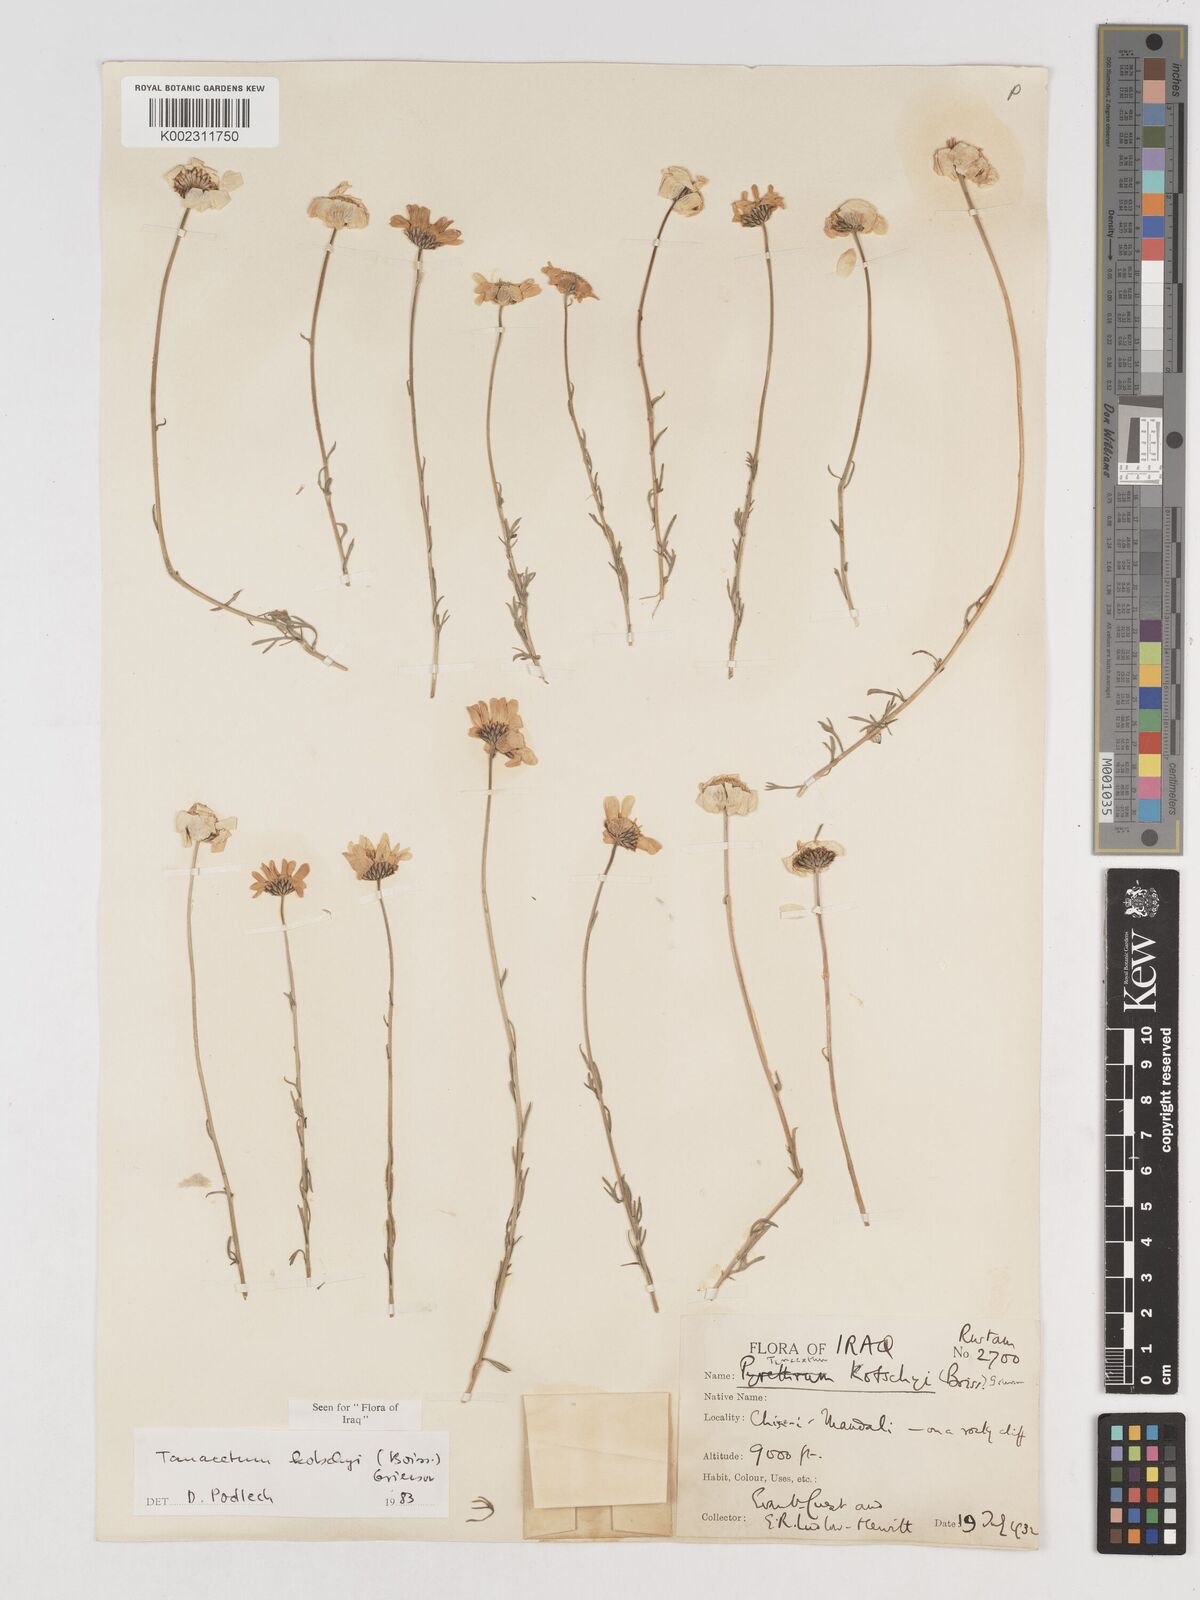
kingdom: Plantae
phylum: Tracheophyta
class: Magnoliopsida
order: Asterales
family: Asteraceae
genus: Tanacetum
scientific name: Tanacetum polycephalum
